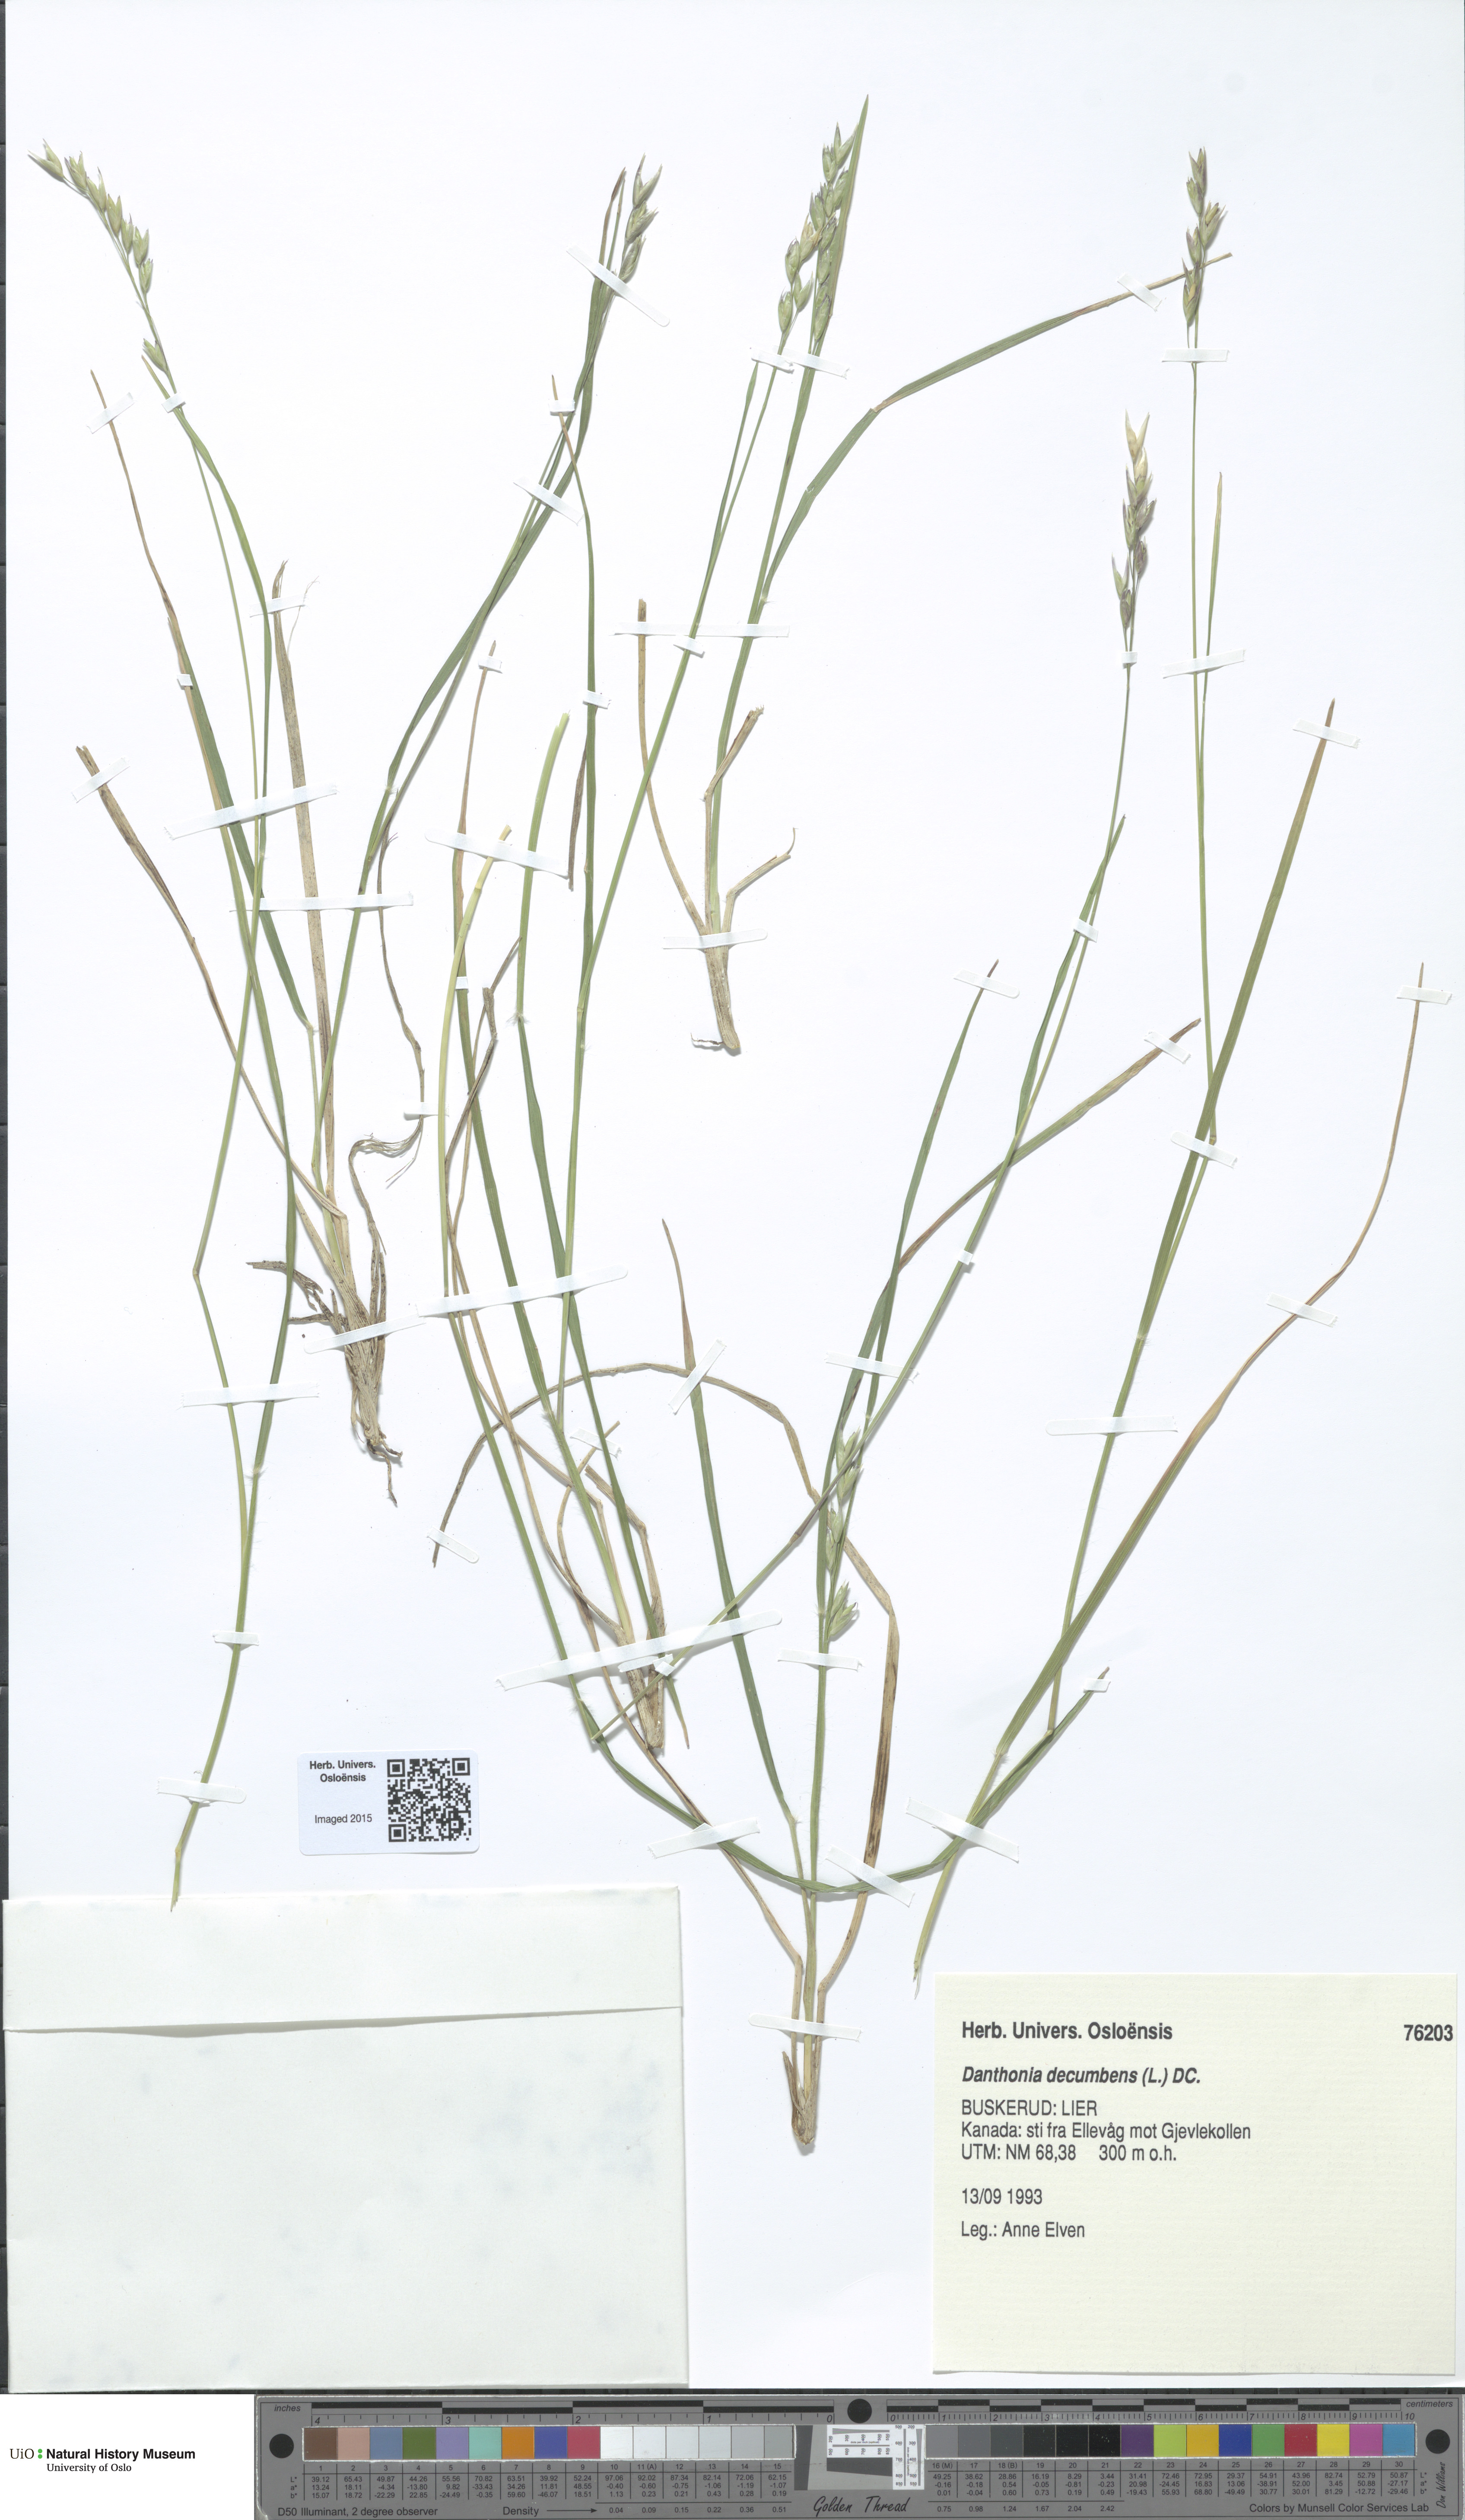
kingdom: Plantae
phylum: Tracheophyta
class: Liliopsida
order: Poales
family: Poaceae
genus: Danthonia
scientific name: Danthonia decumbens
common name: Common heathgrass
